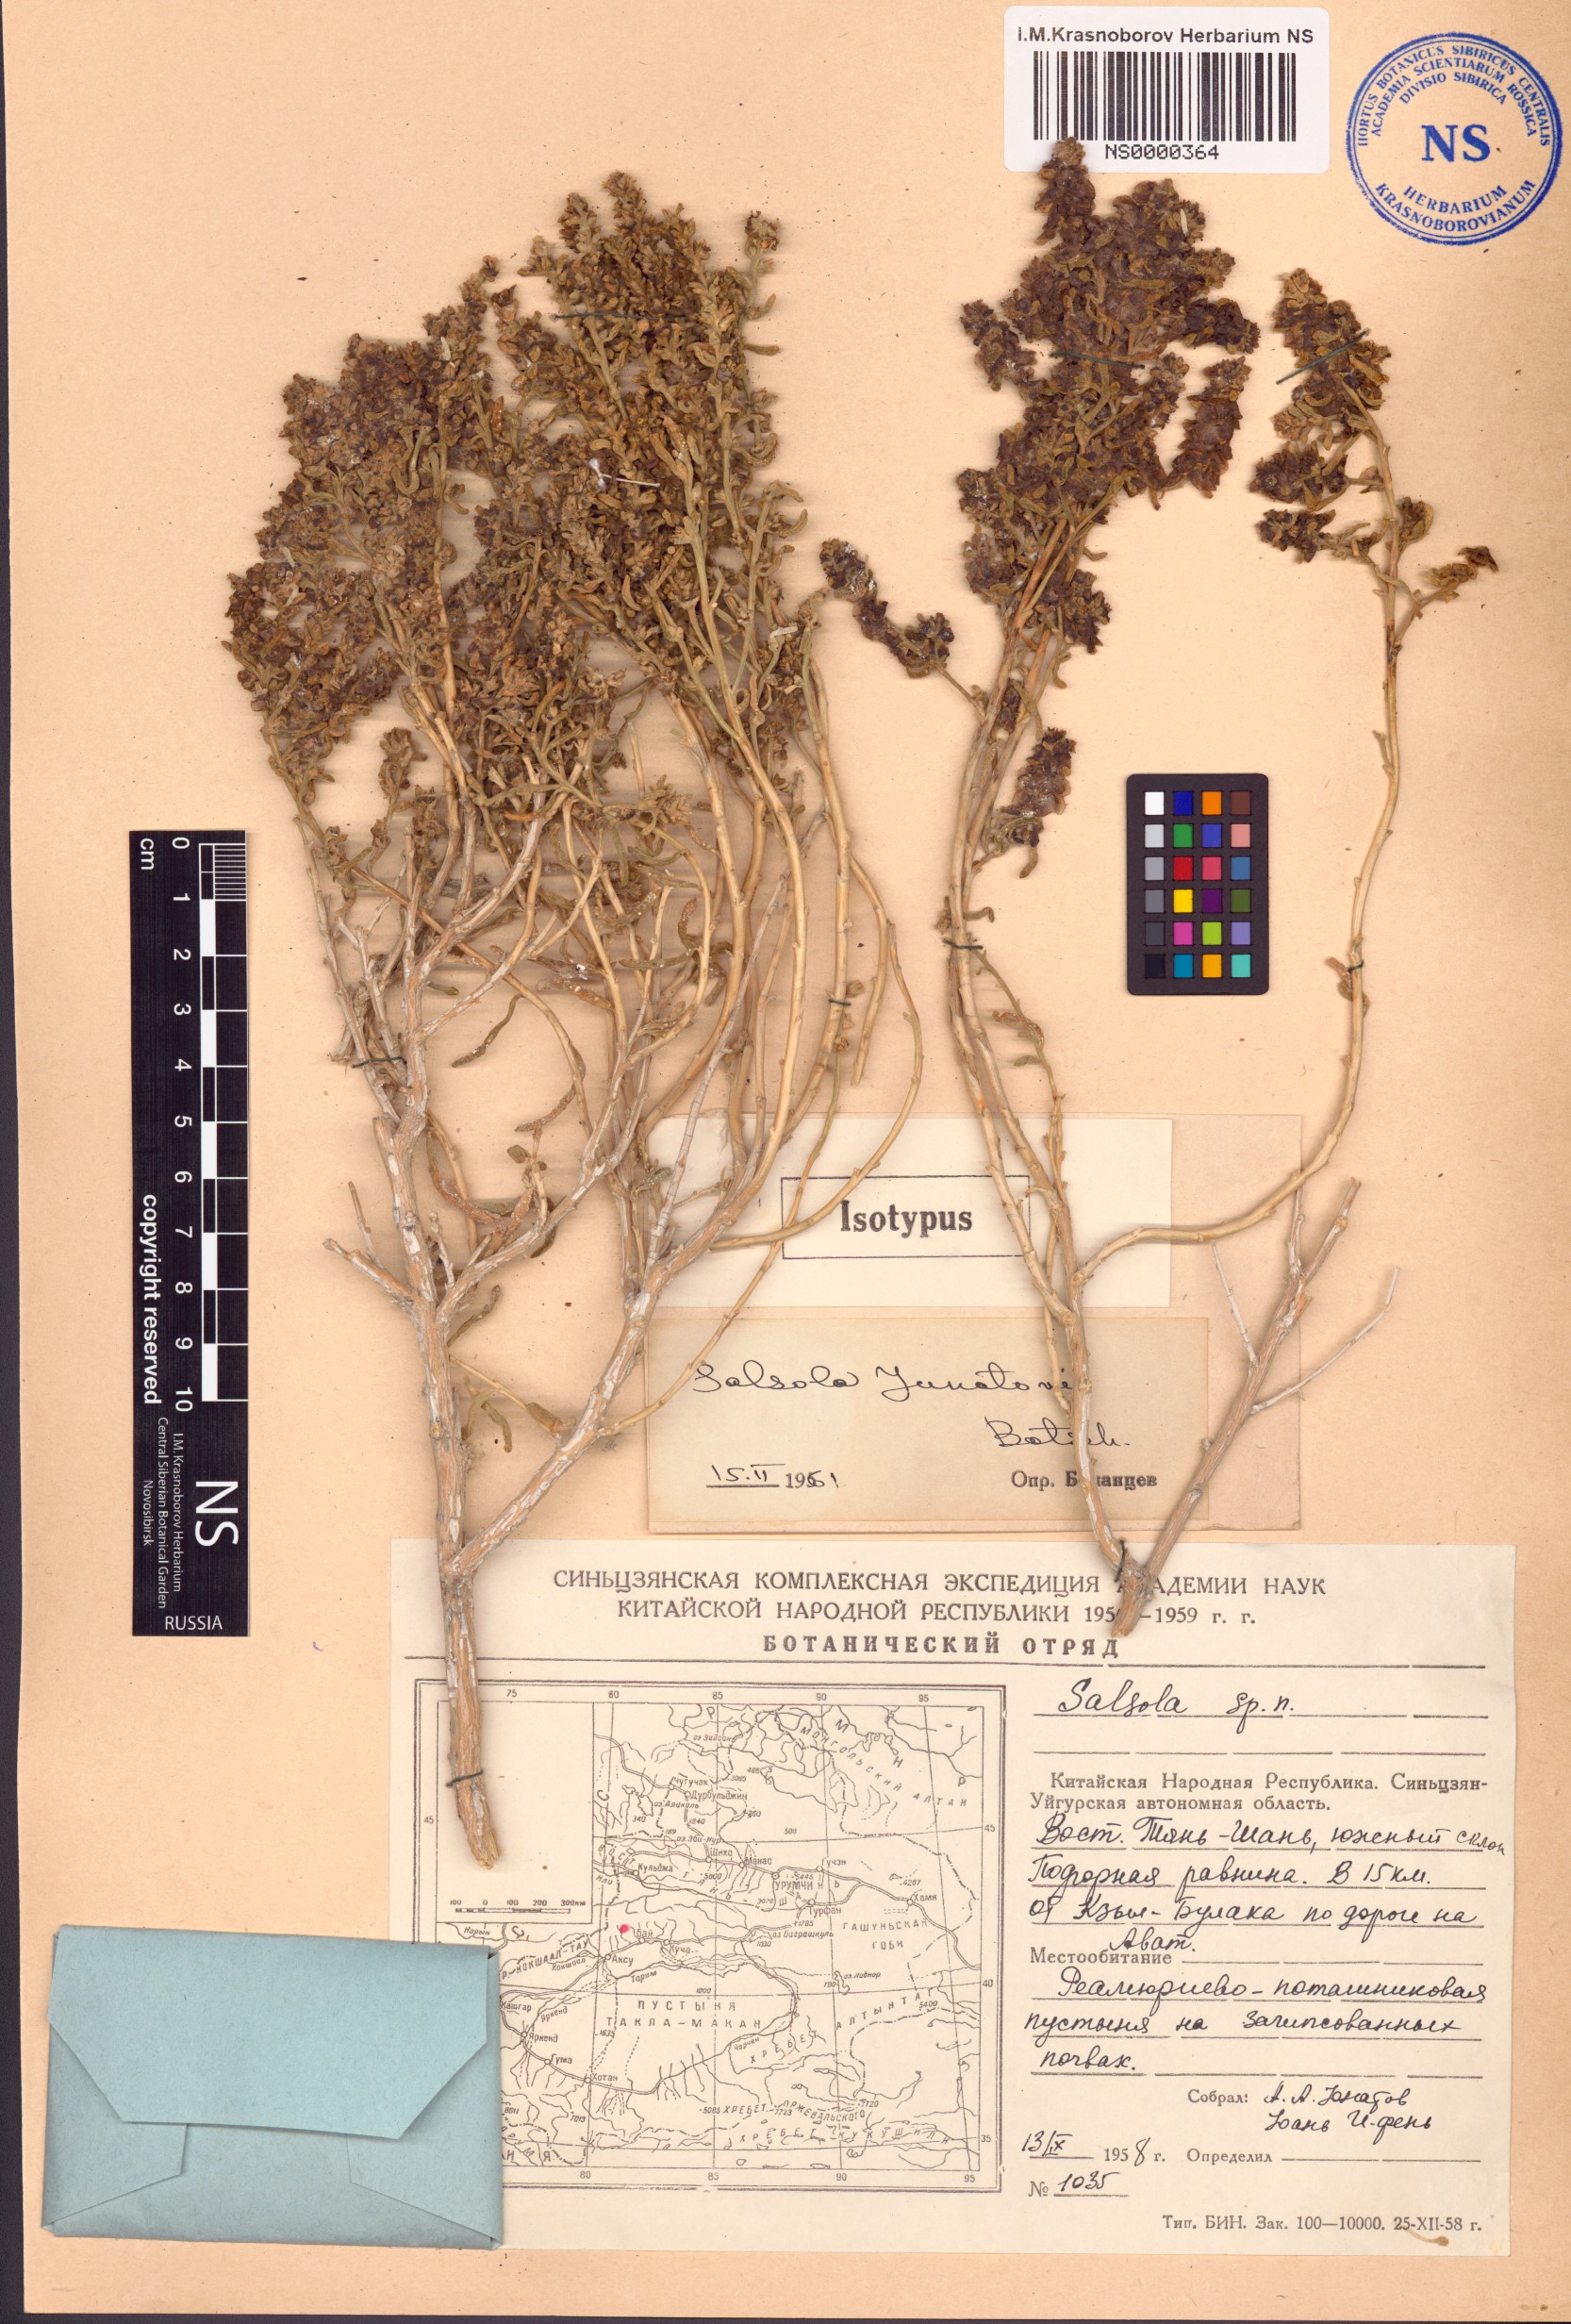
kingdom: Plantae
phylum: Tracheophyta
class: Magnoliopsida
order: Caryophyllales
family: Amaranthaceae
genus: Salsola
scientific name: Salsola junatovii
